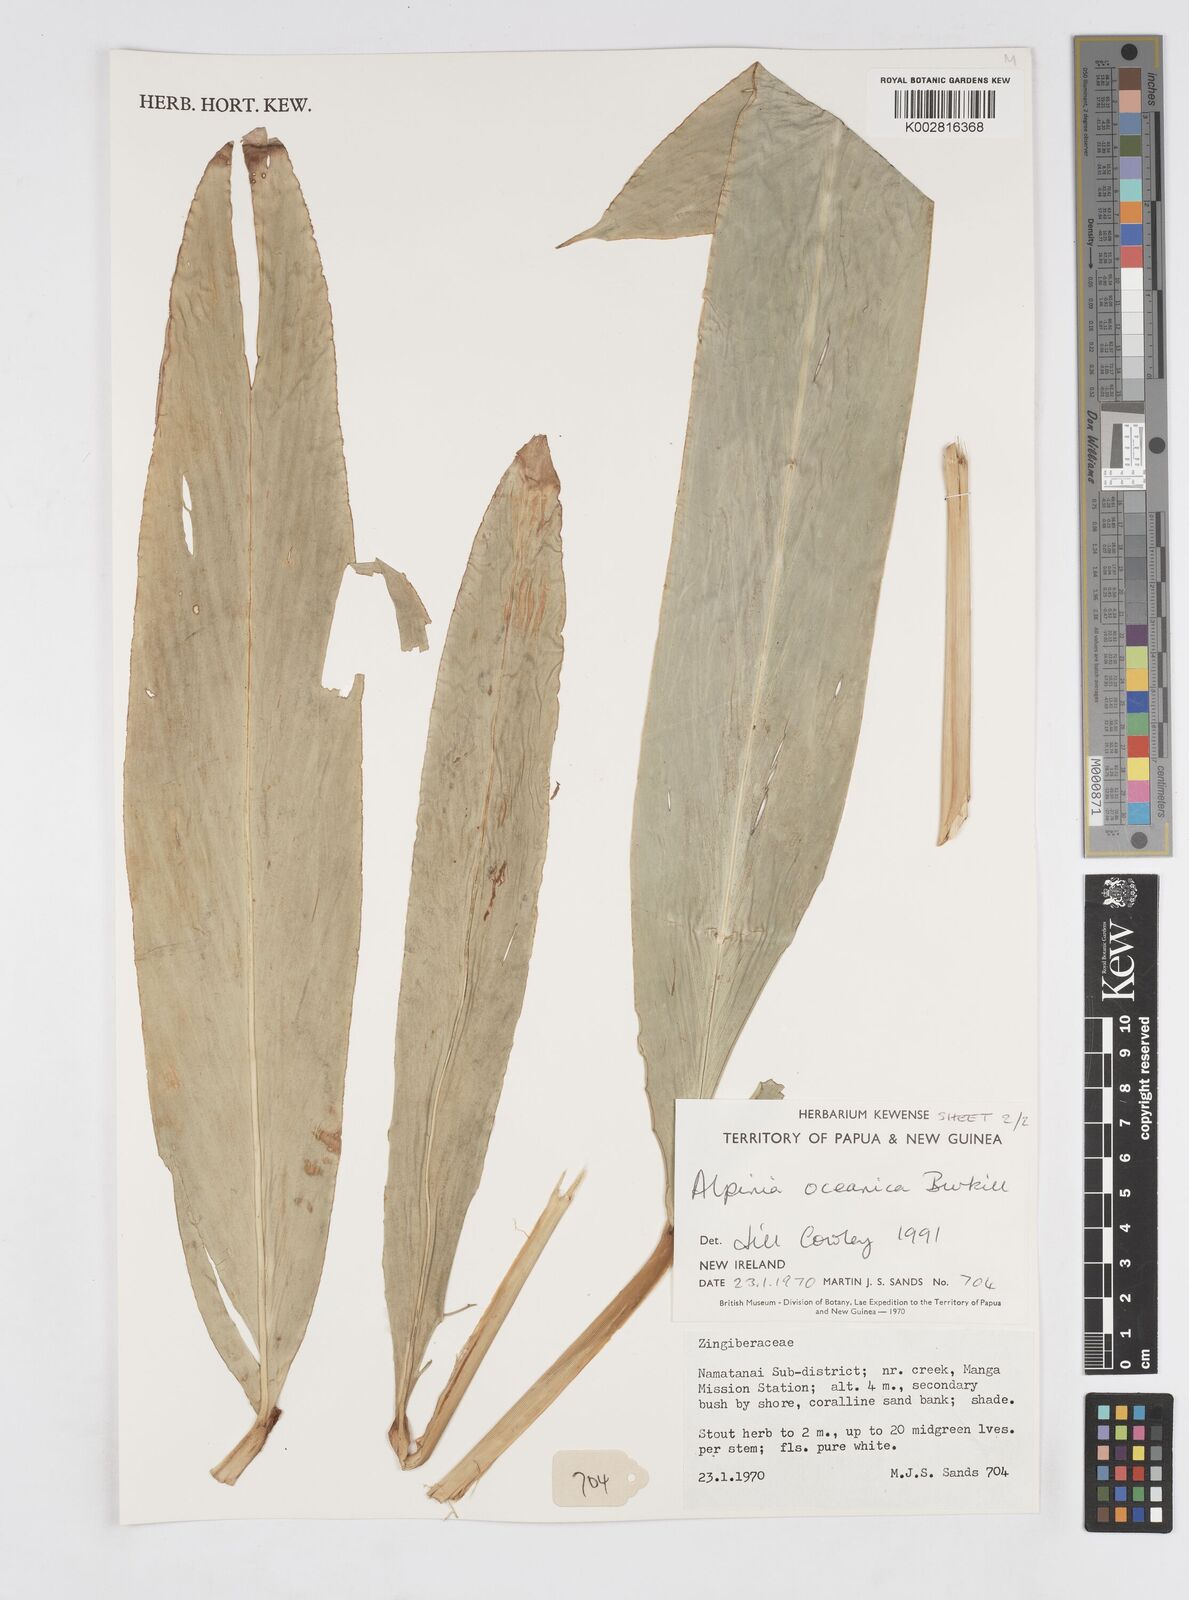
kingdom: Plantae
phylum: Tracheophyta
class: Liliopsida
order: Zingiberales
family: Zingiberaceae
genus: Alpinia
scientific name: Alpinia oceanica
